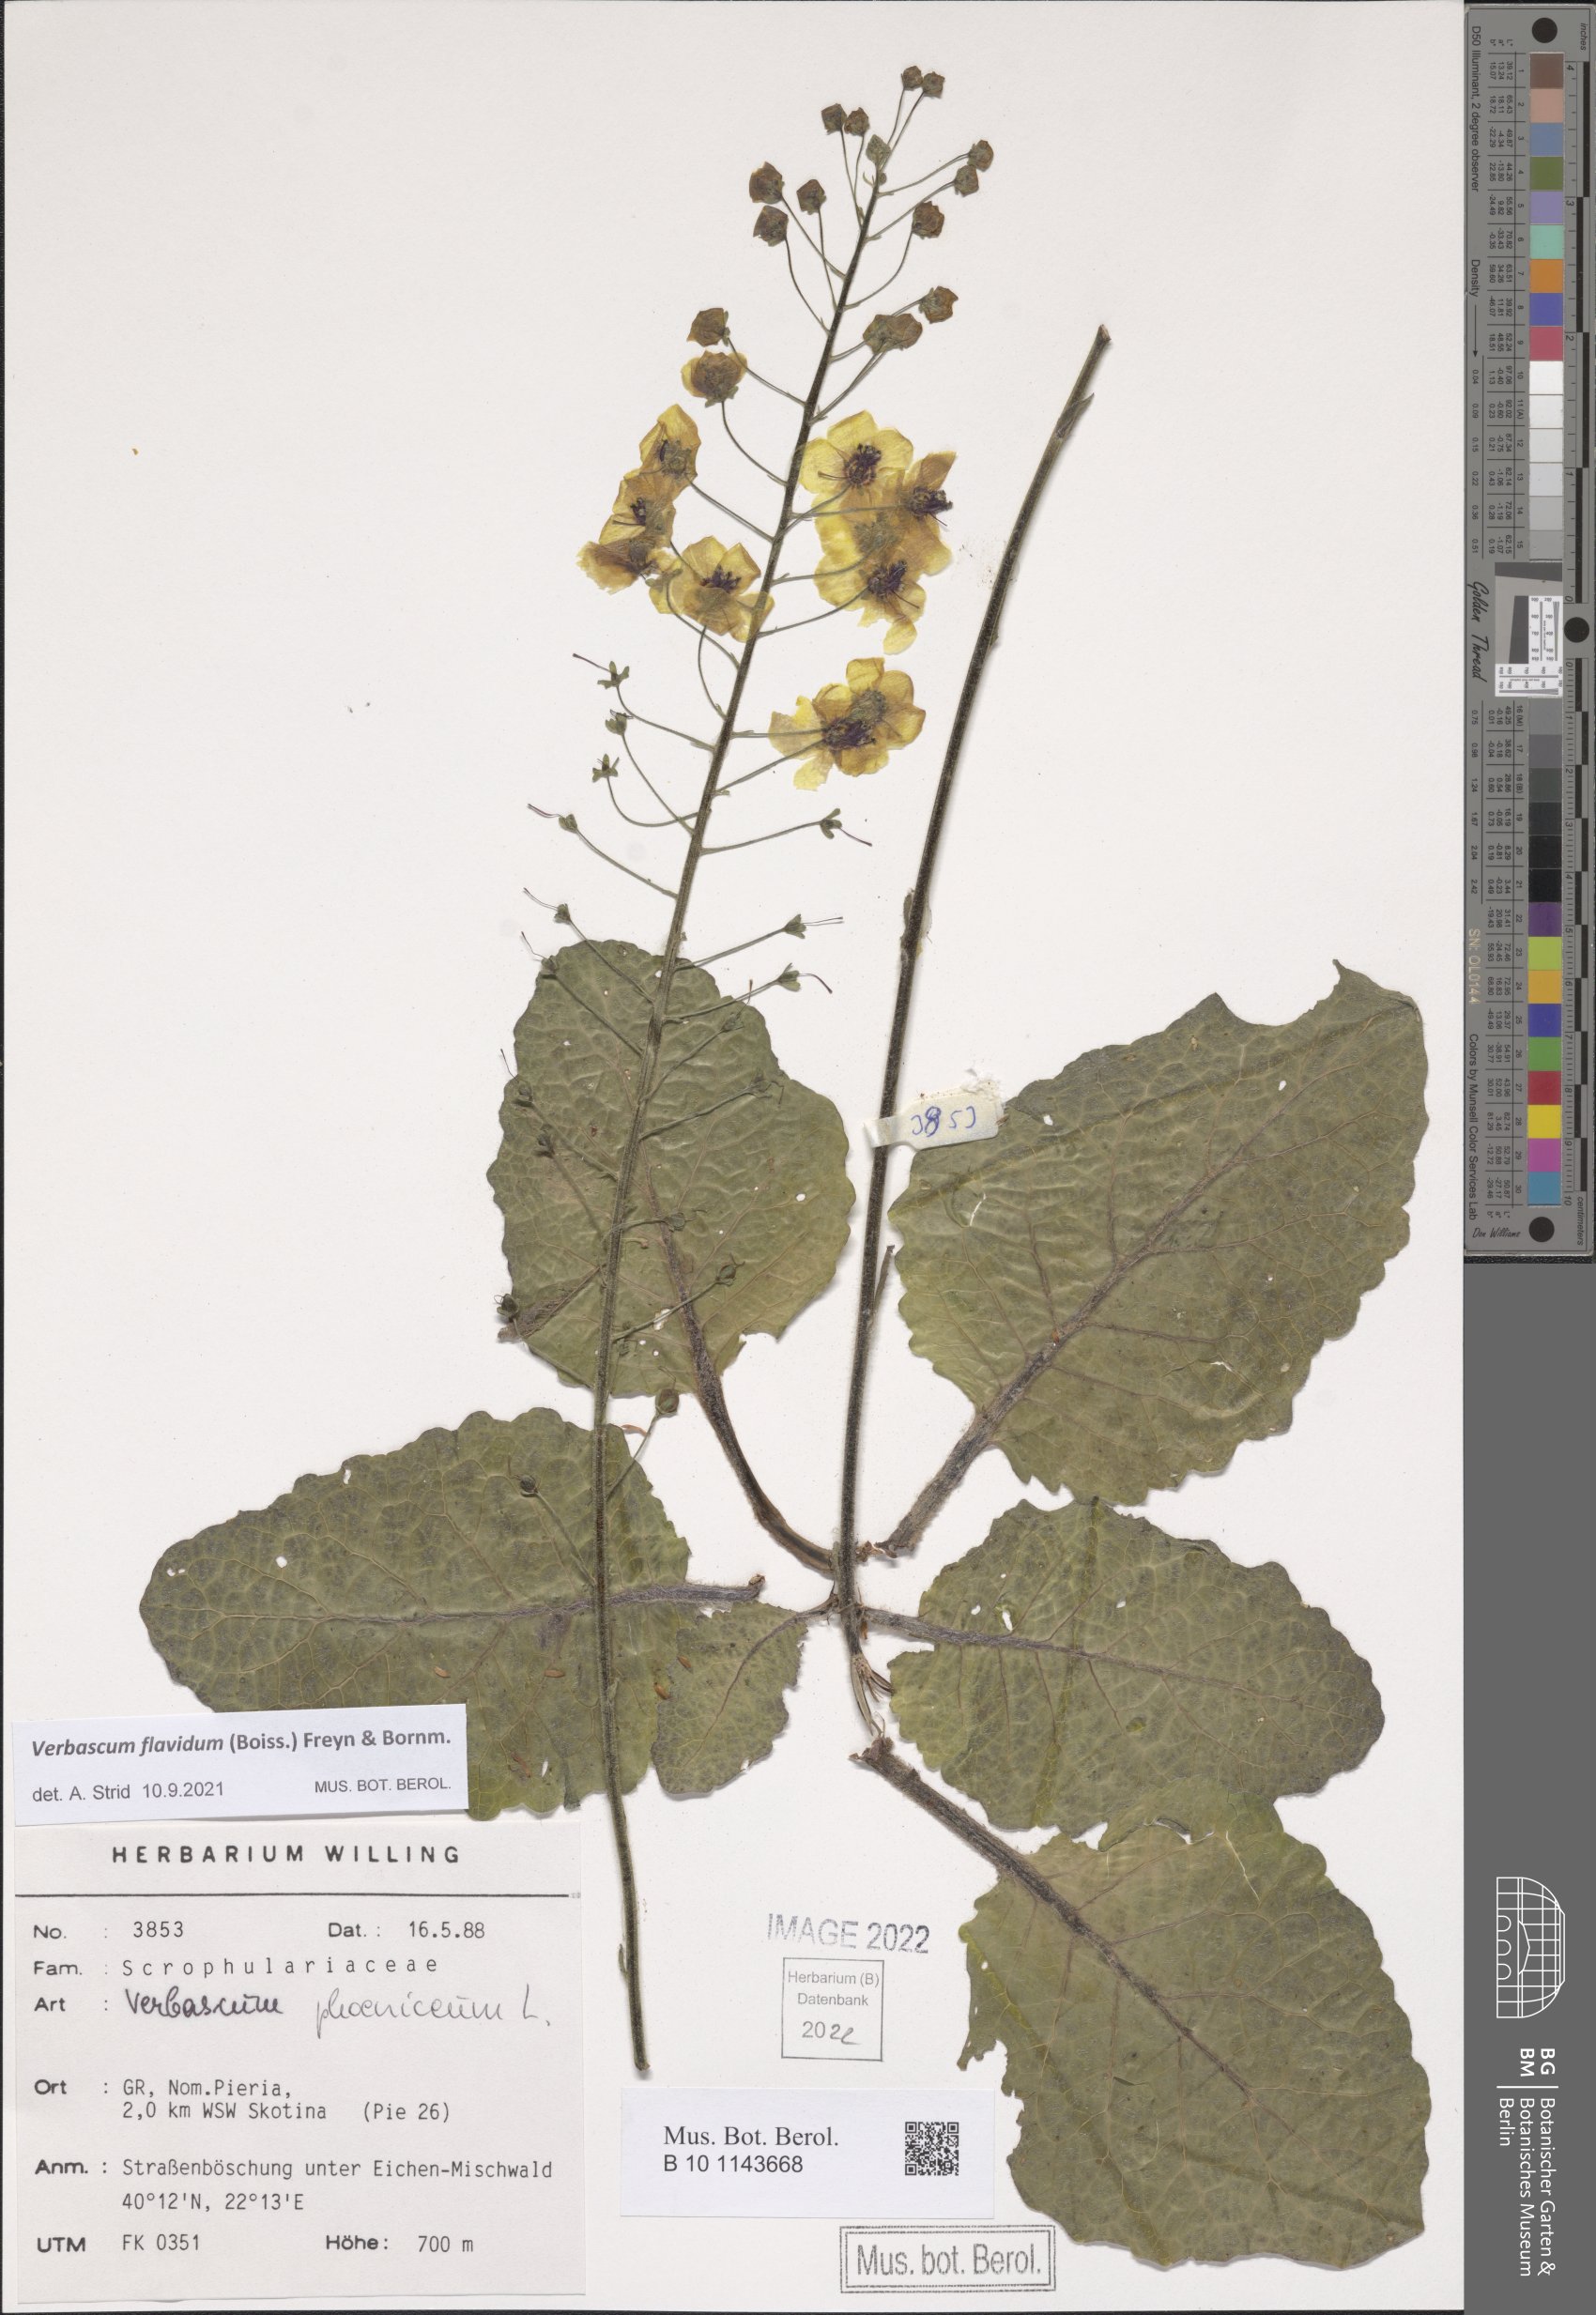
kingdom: Plantae
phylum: Tracheophyta
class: Magnoliopsida
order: Lamiales
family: Scrophulariaceae
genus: Verbascum
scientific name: Verbascum flavidum
